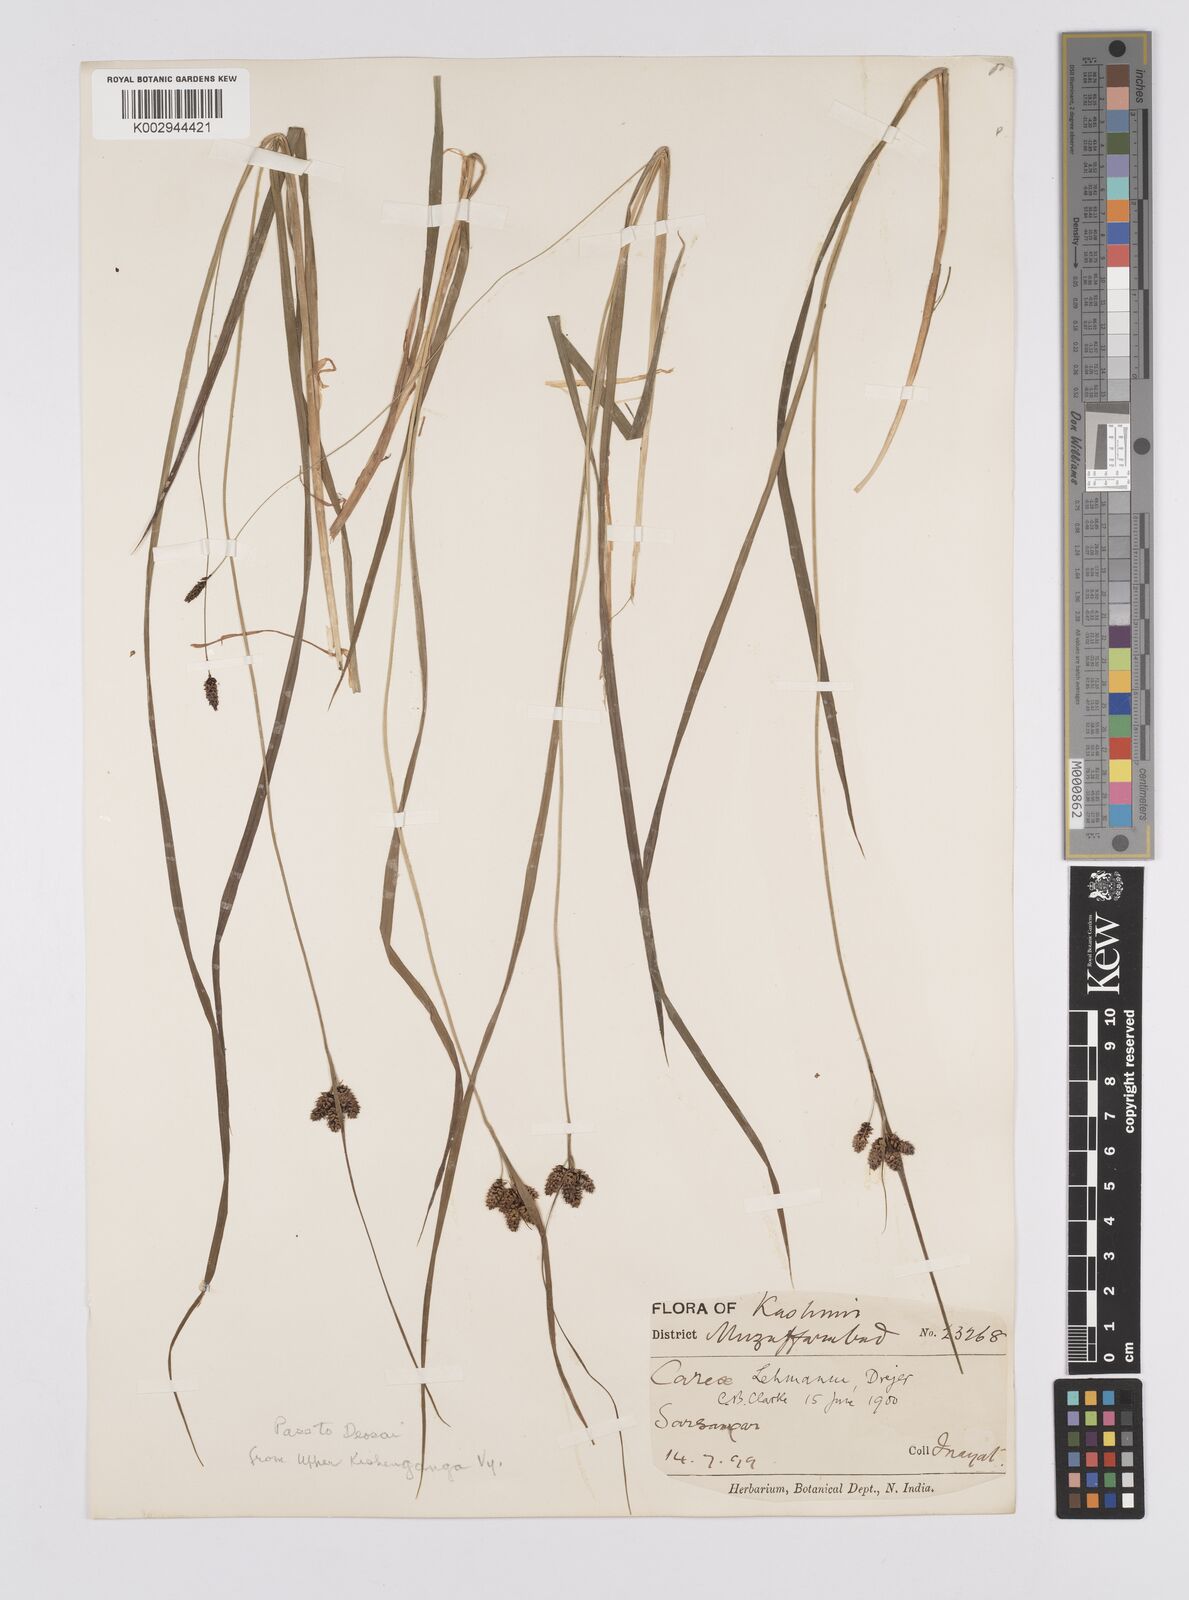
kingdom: Plantae
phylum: Tracheophyta
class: Liliopsida
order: Poales
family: Cyperaceae
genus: Carex
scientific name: Carex lehmannii
